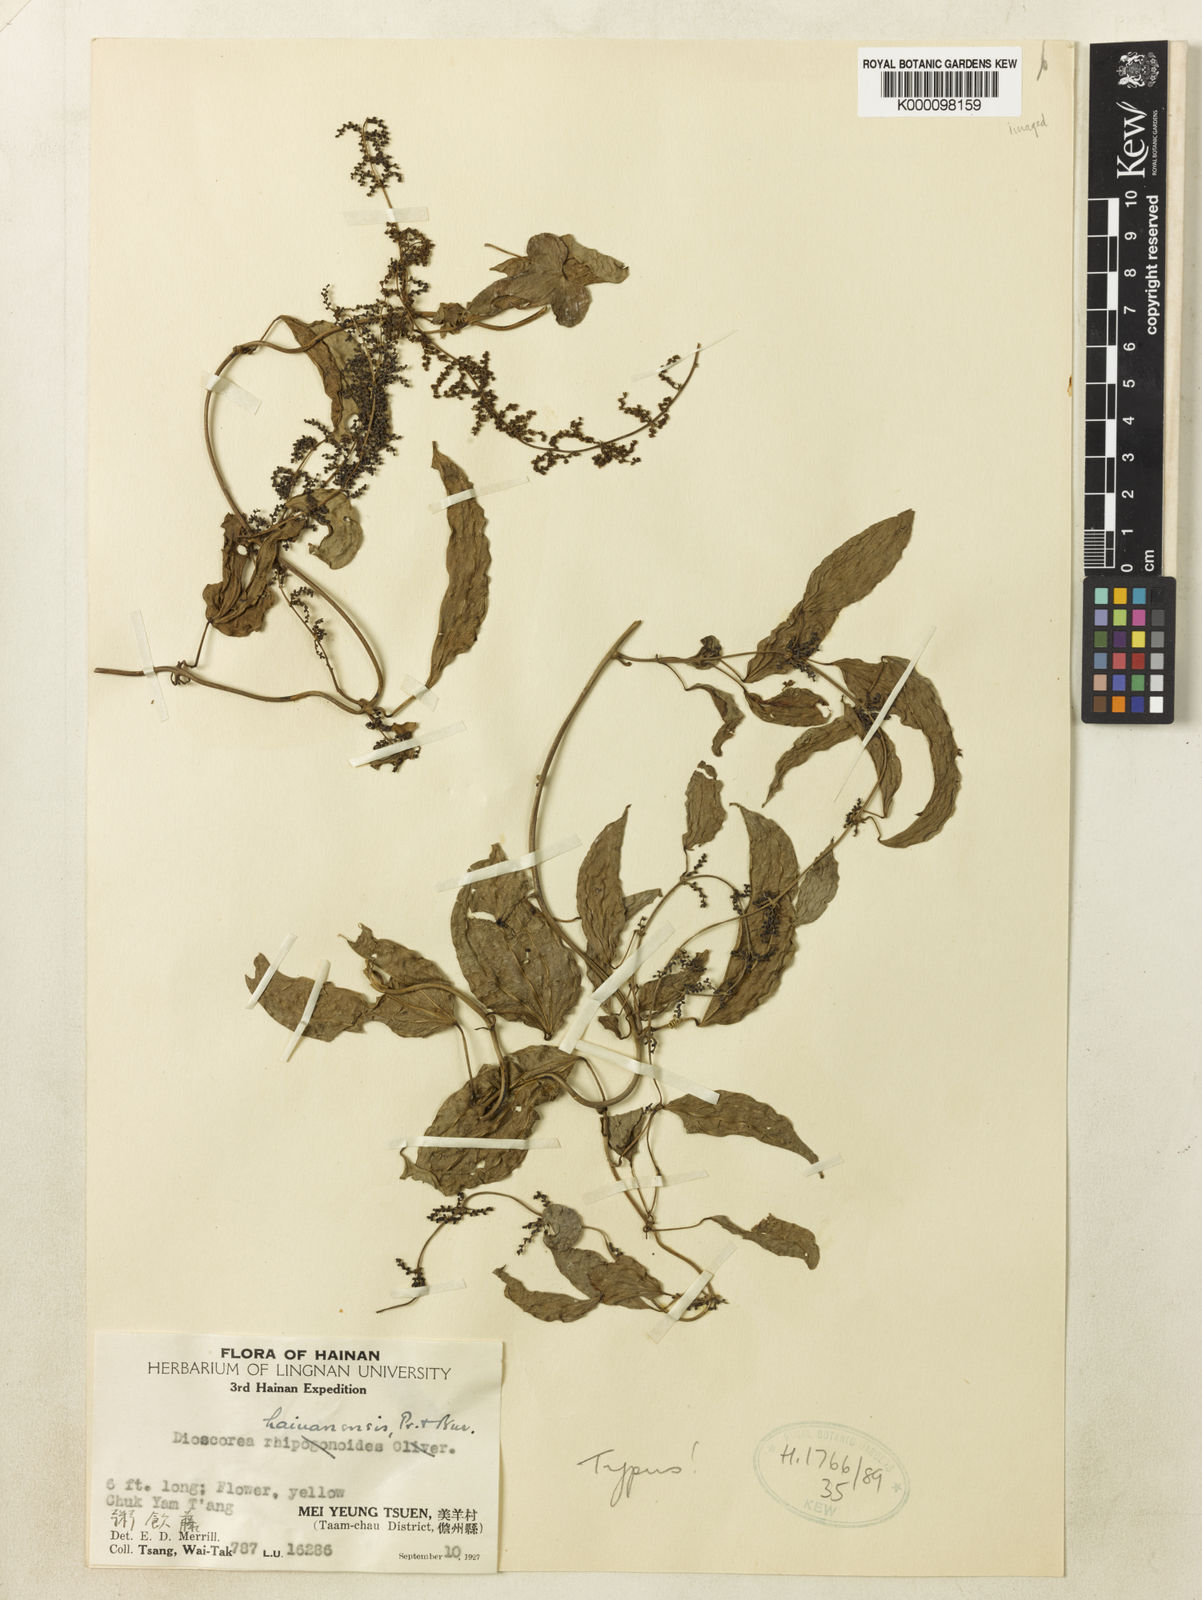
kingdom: Plantae
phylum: Tracheophyta
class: Liliopsida
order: Dioscoreales
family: Dioscoreaceae
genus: Dioscorea
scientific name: Dioscorea fordii
